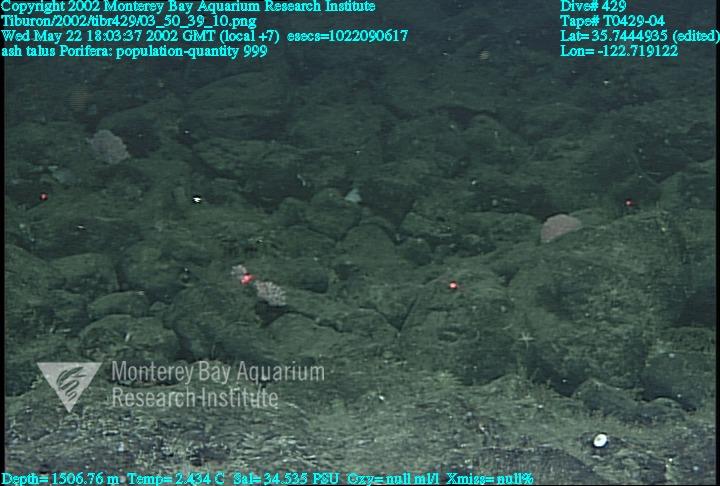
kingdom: Animalia
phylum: Porifera
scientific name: Porifera
